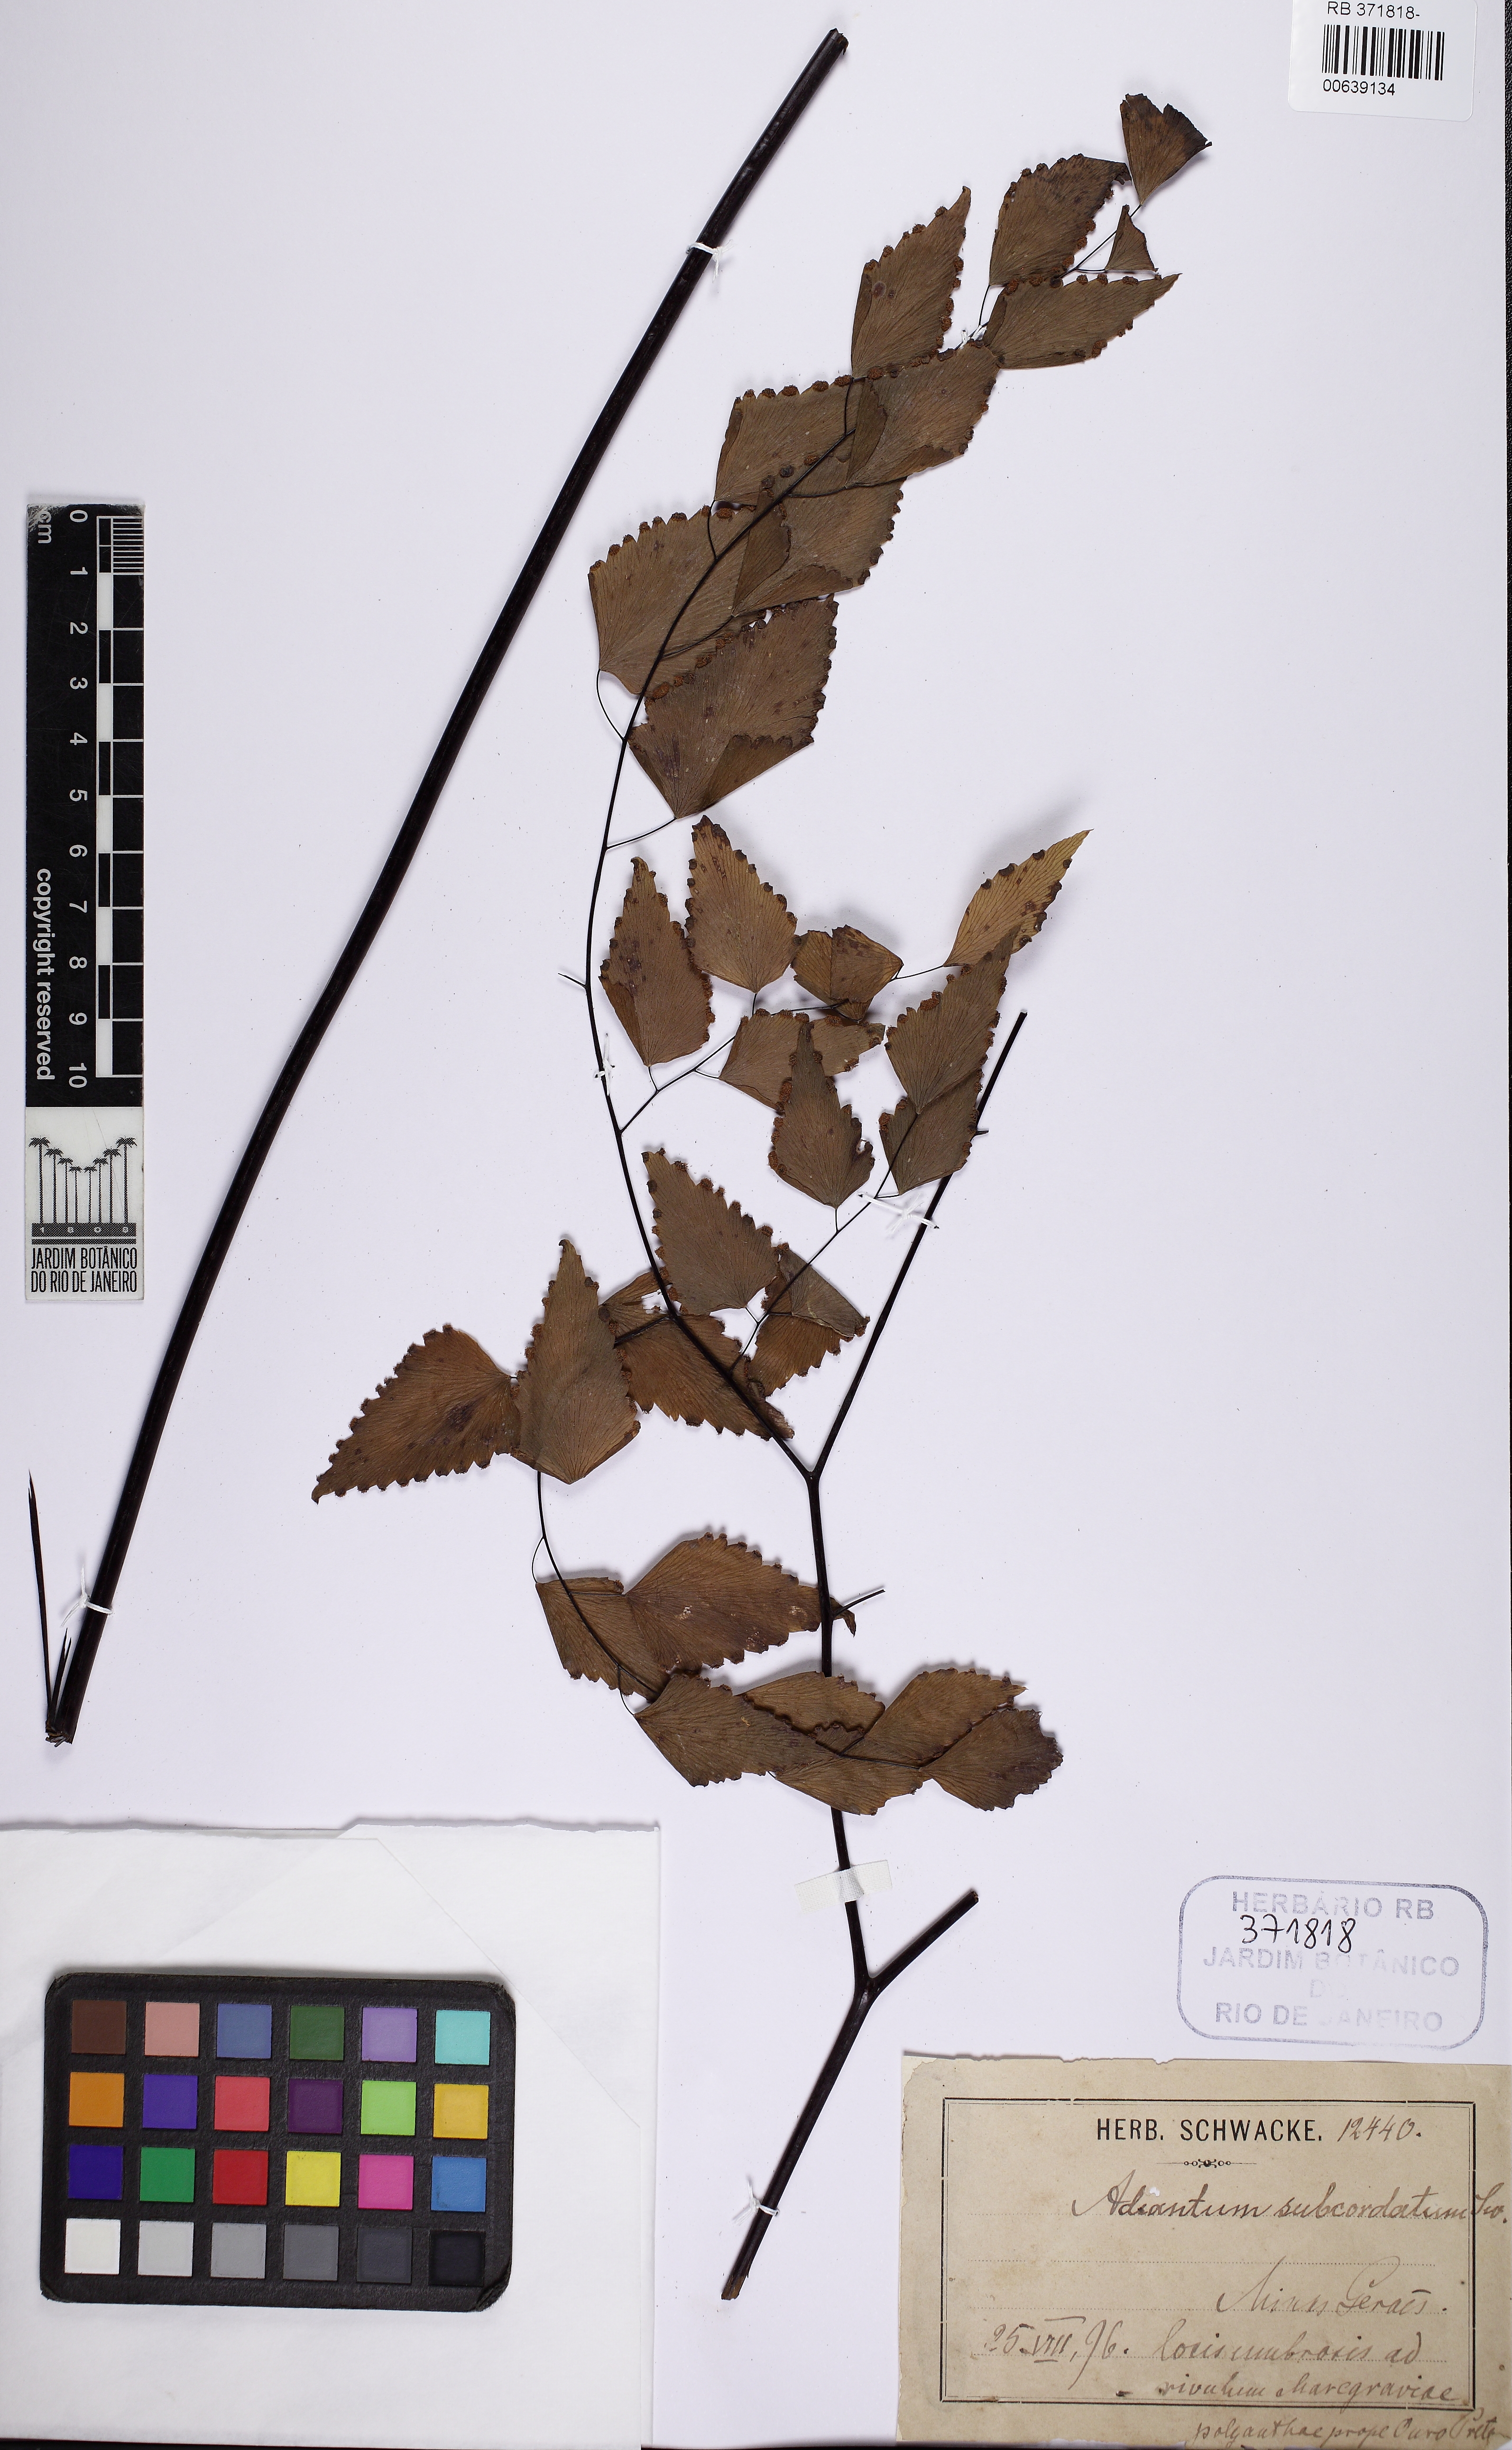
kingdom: Plantae
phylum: Tracheophyta
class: Polypodiopsida
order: Polypodiales
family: Pteridaceae
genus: Adiantum
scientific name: Adiantum subcordatum
